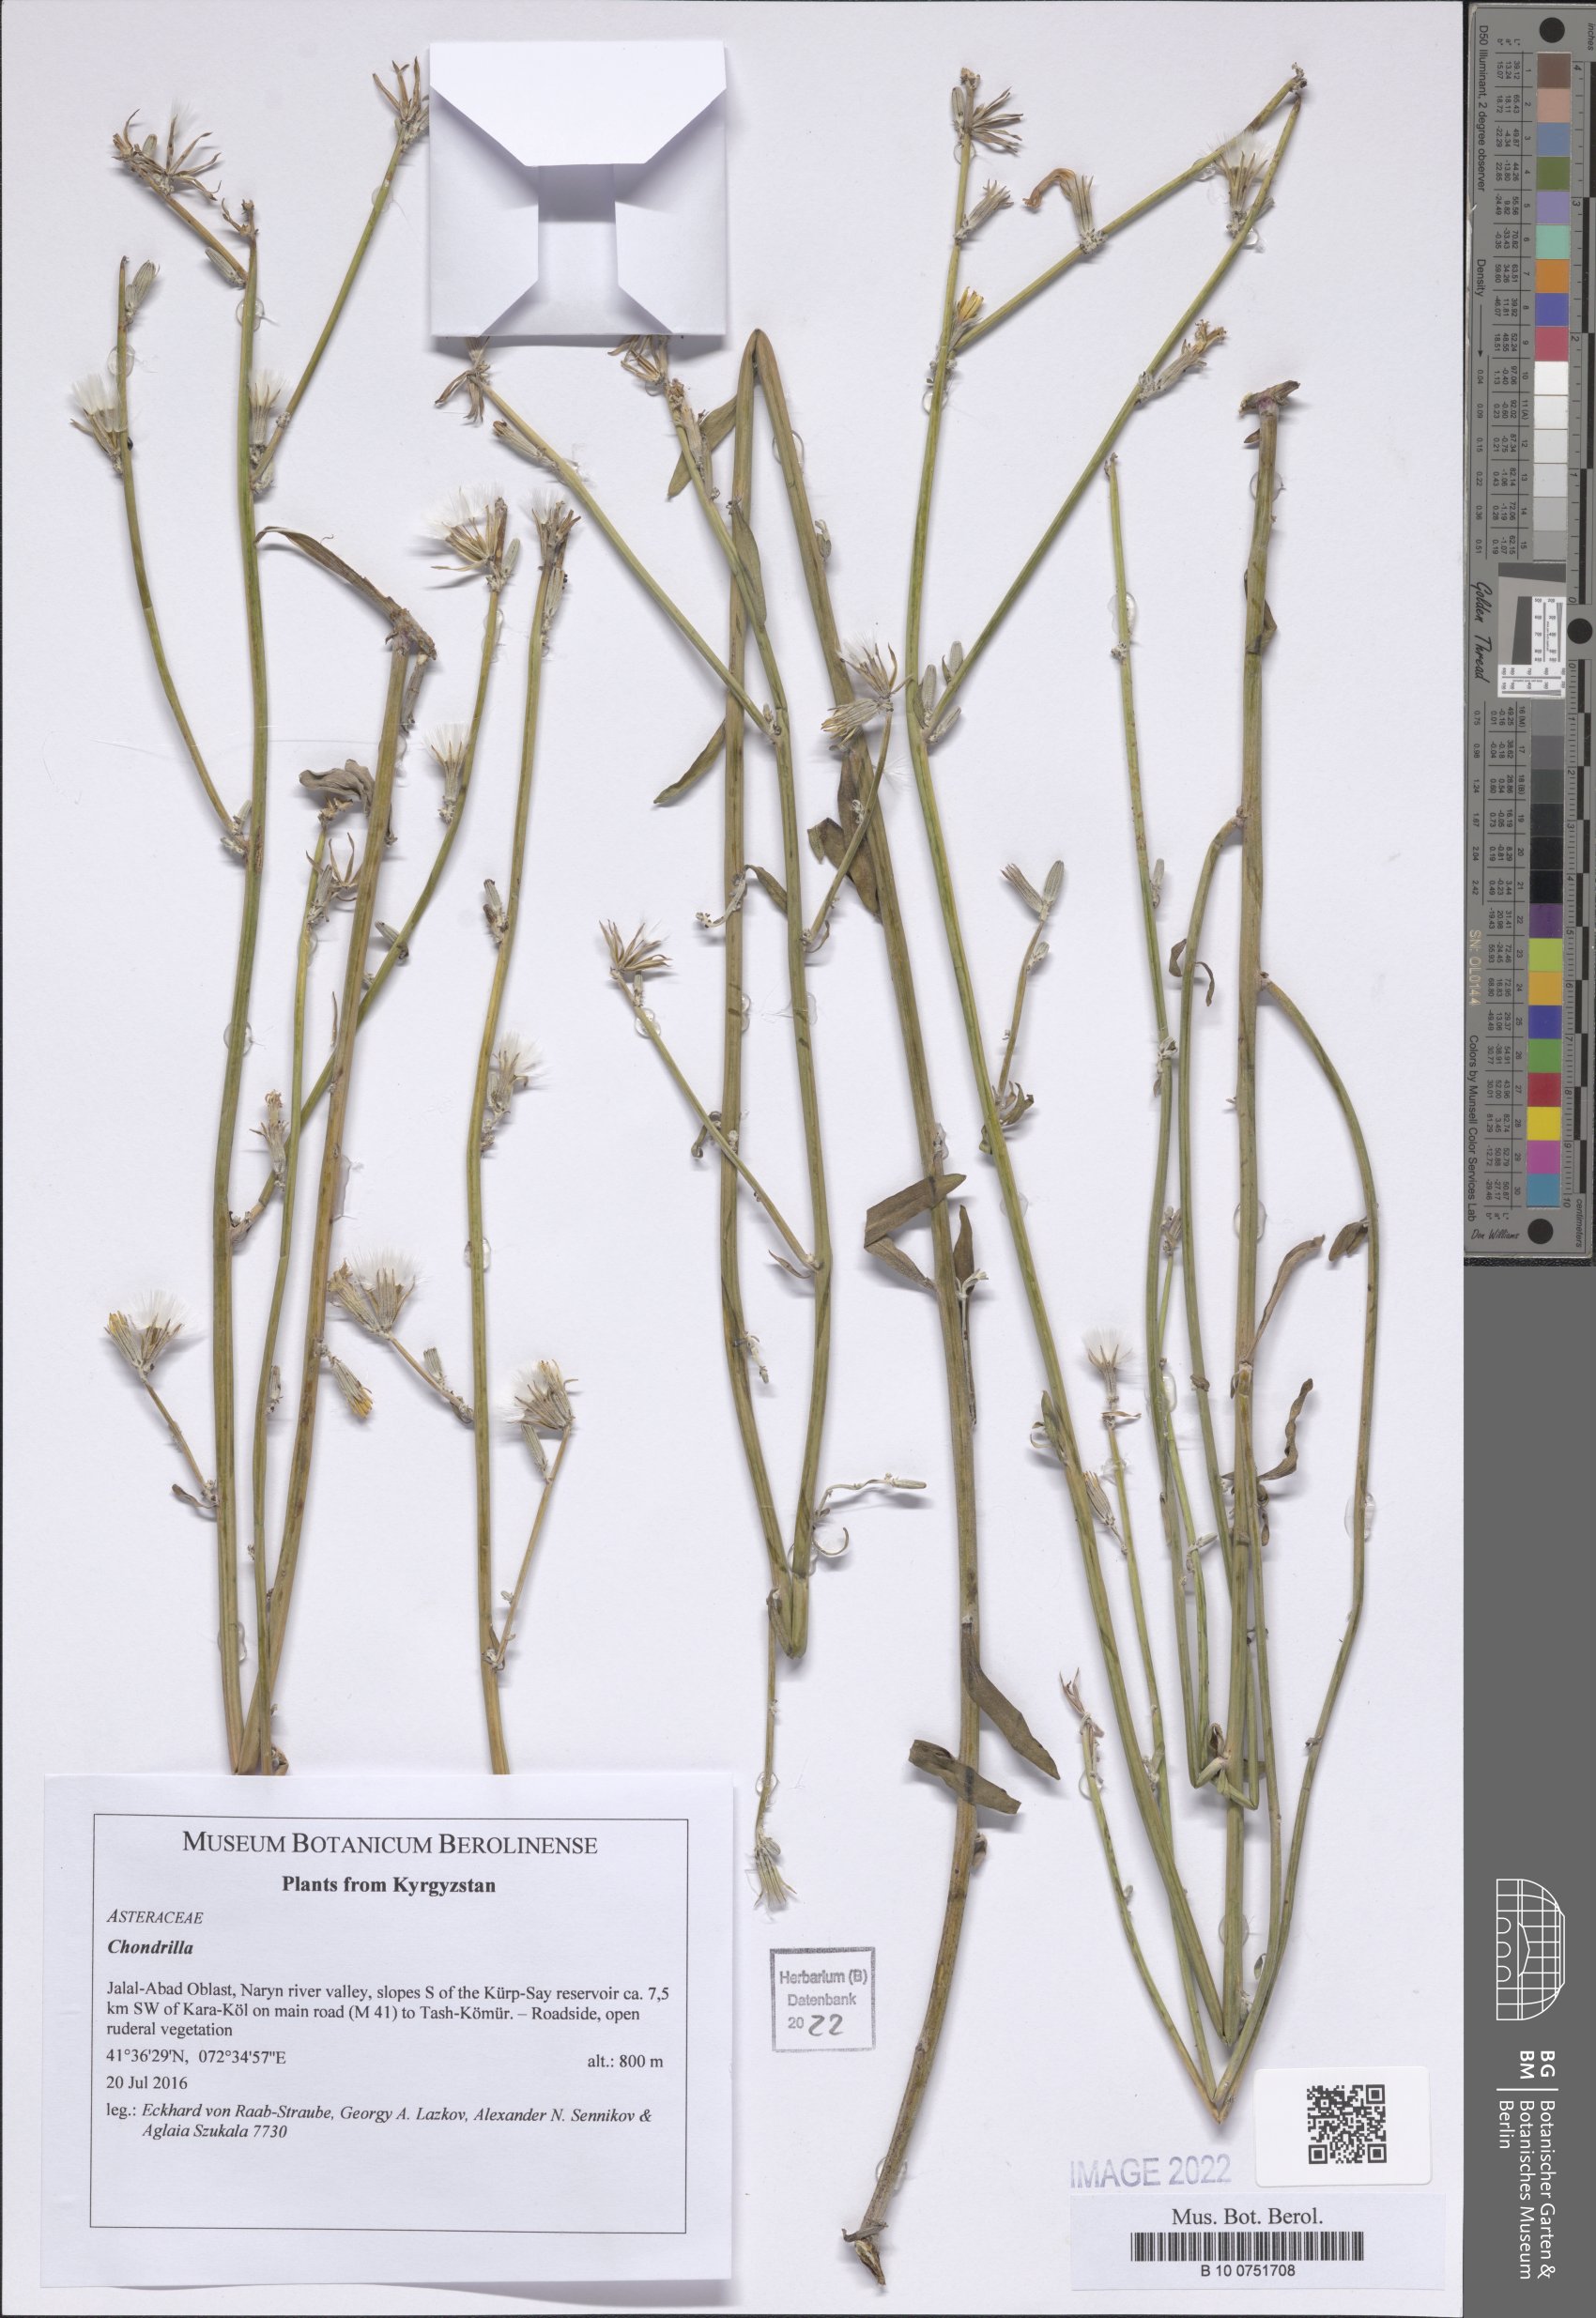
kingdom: Plantae
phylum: Tracheophyta
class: Magnoliopsida
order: Asterales
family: Asteraceae
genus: Chondrilla
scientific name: Chondrilla
